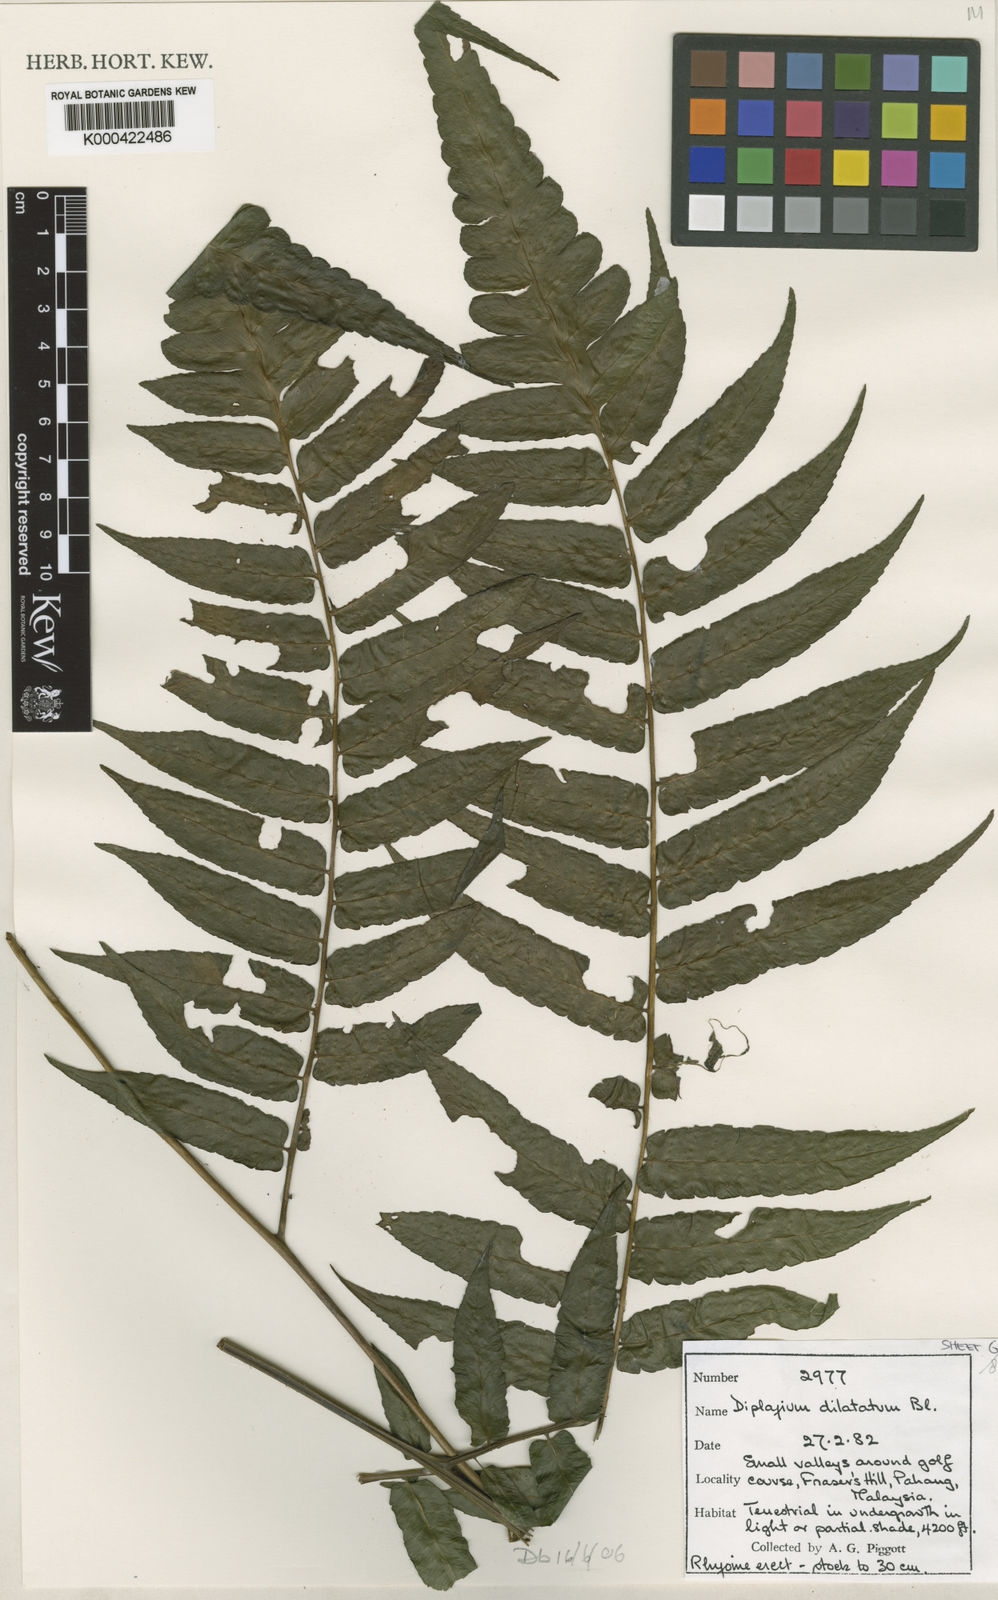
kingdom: Plantae
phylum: Tracheophyta
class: Polypodiopsida
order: Polypodiales
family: Athyriaceae
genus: Diplazium
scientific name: Diplazium dilatatum
